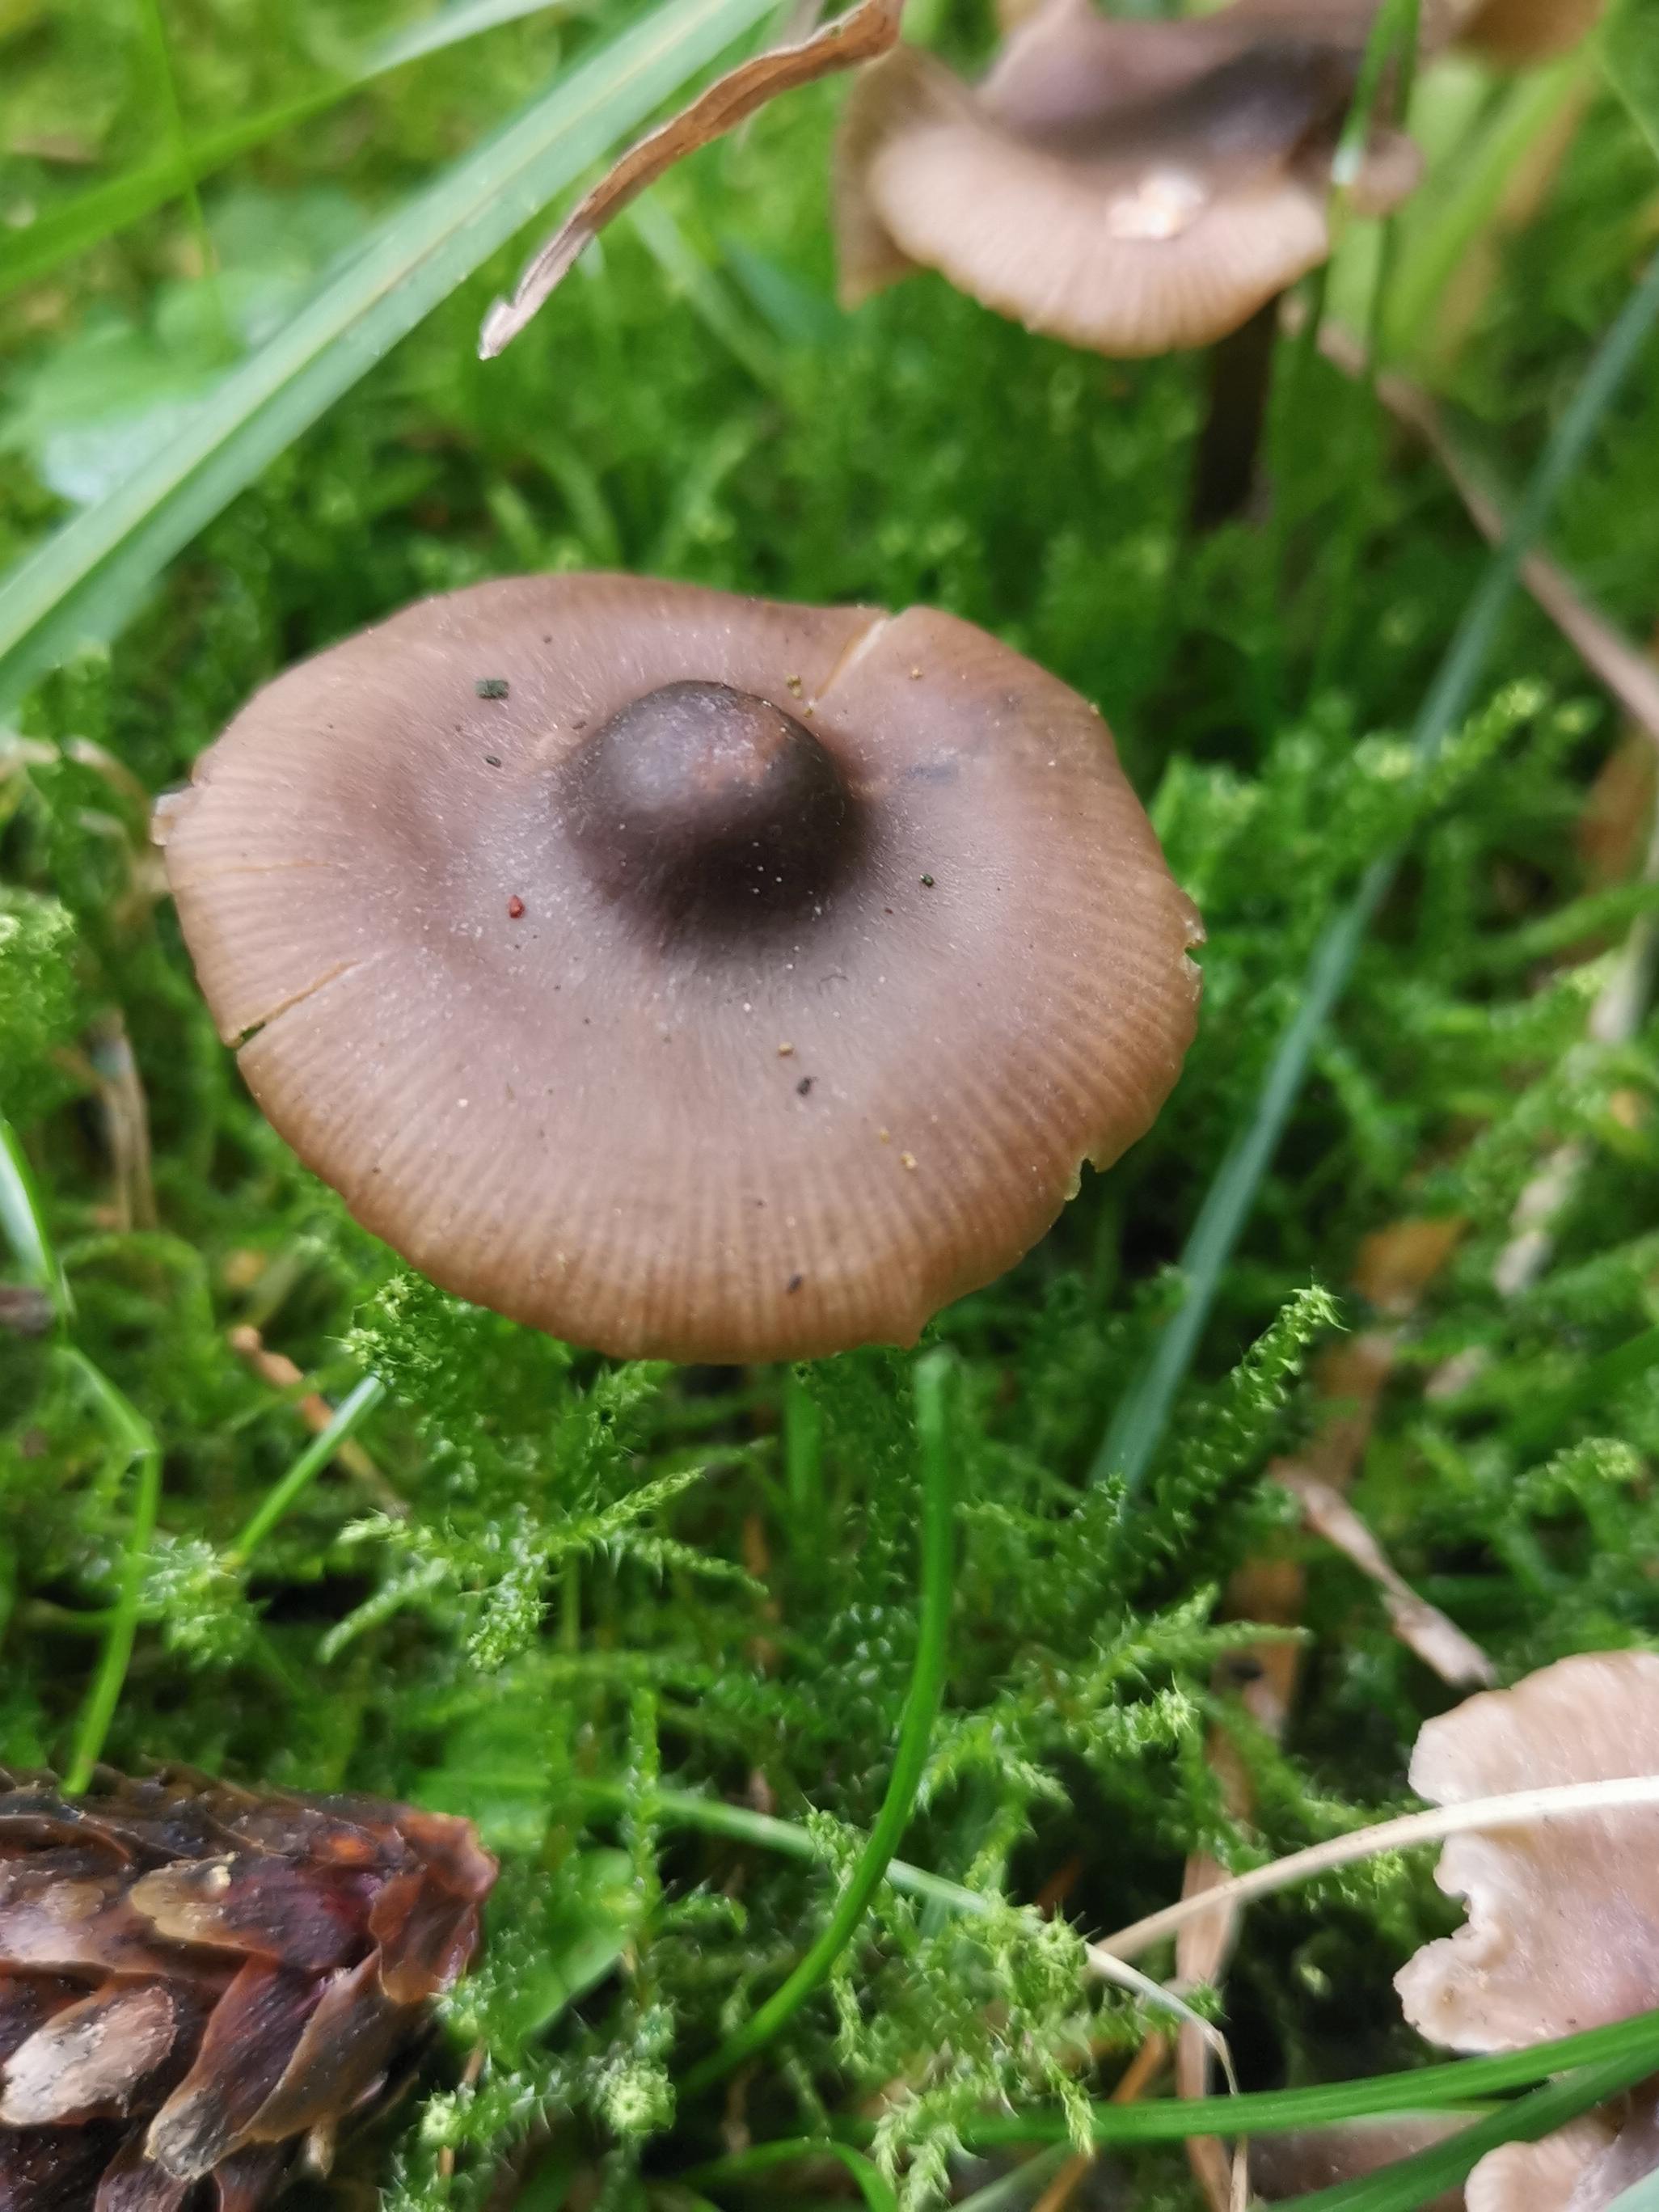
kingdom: Fungi
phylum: Basidiomycota
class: Agaricomycetes
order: Agaricales
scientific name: Agaricales
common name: champignonordenen
